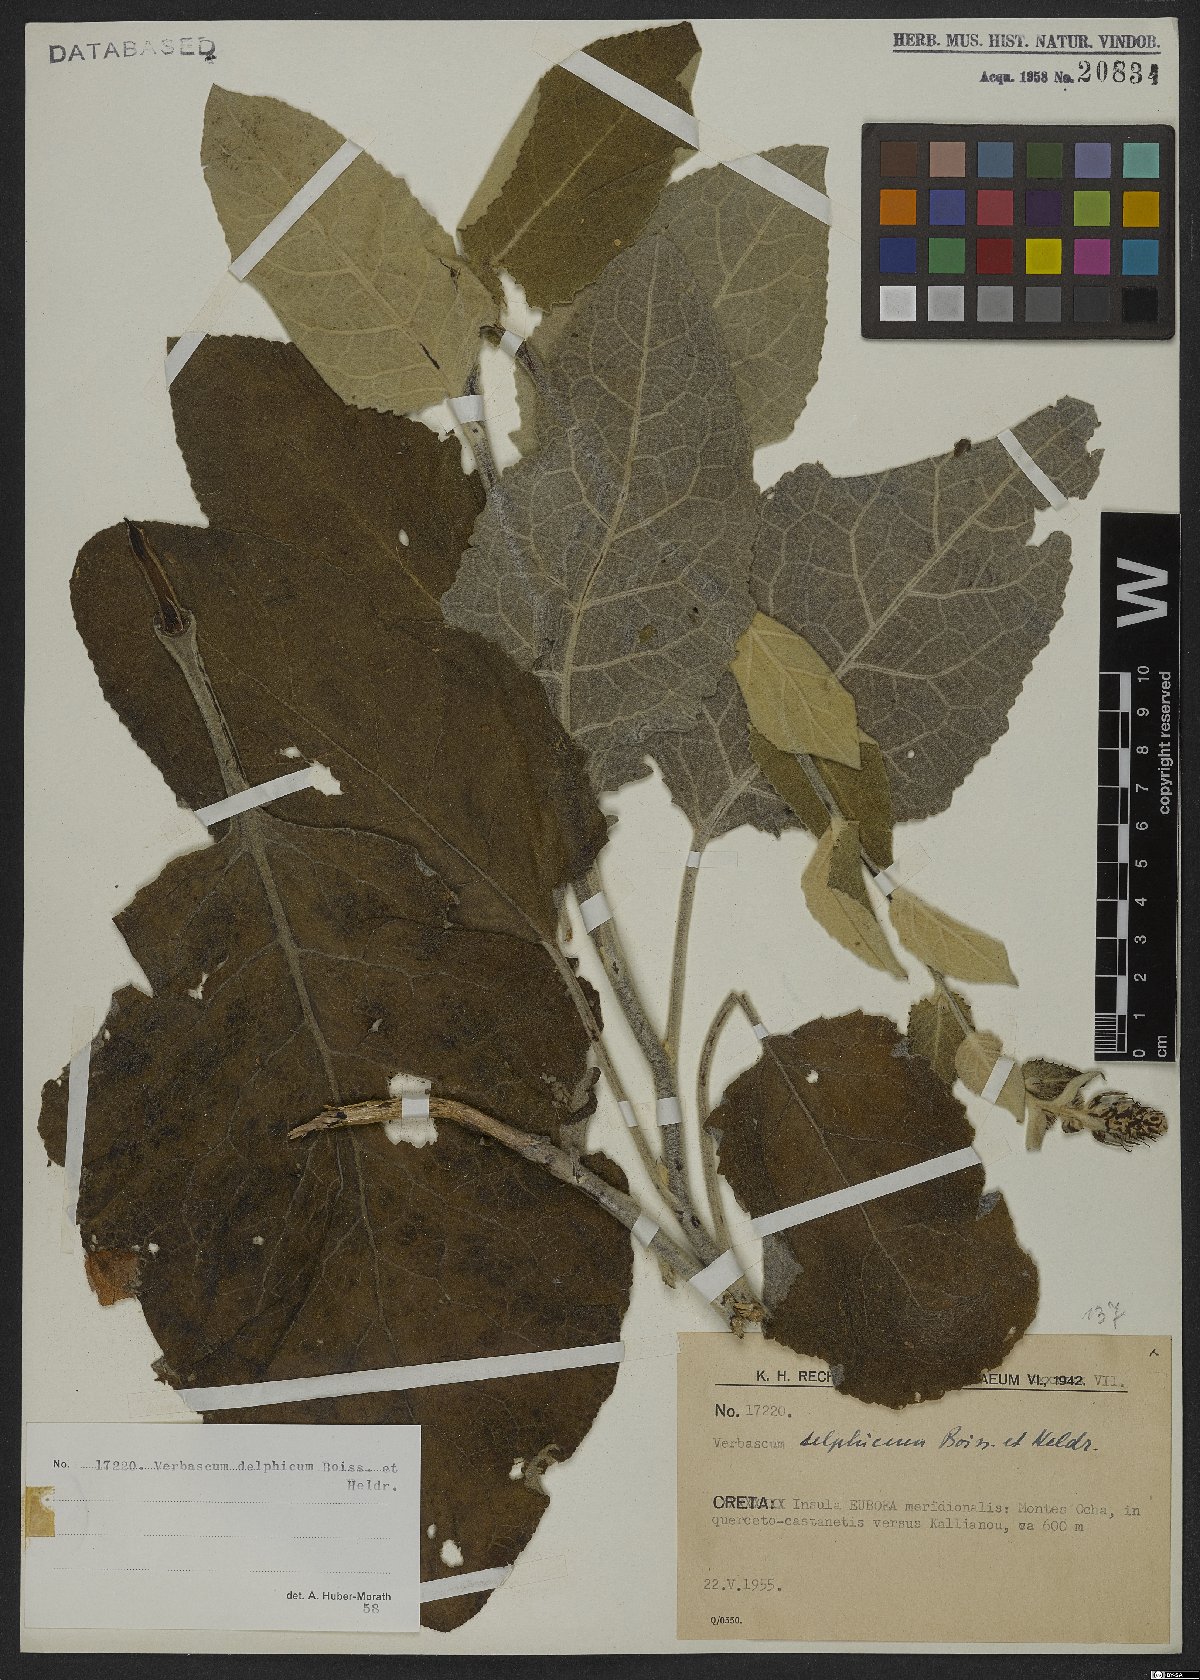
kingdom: Plantae
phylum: Tracheophyta
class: Magnoliopsida
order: Lamiales
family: Scrophulariaceae
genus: Verbascum
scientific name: Verbascum delphicum
